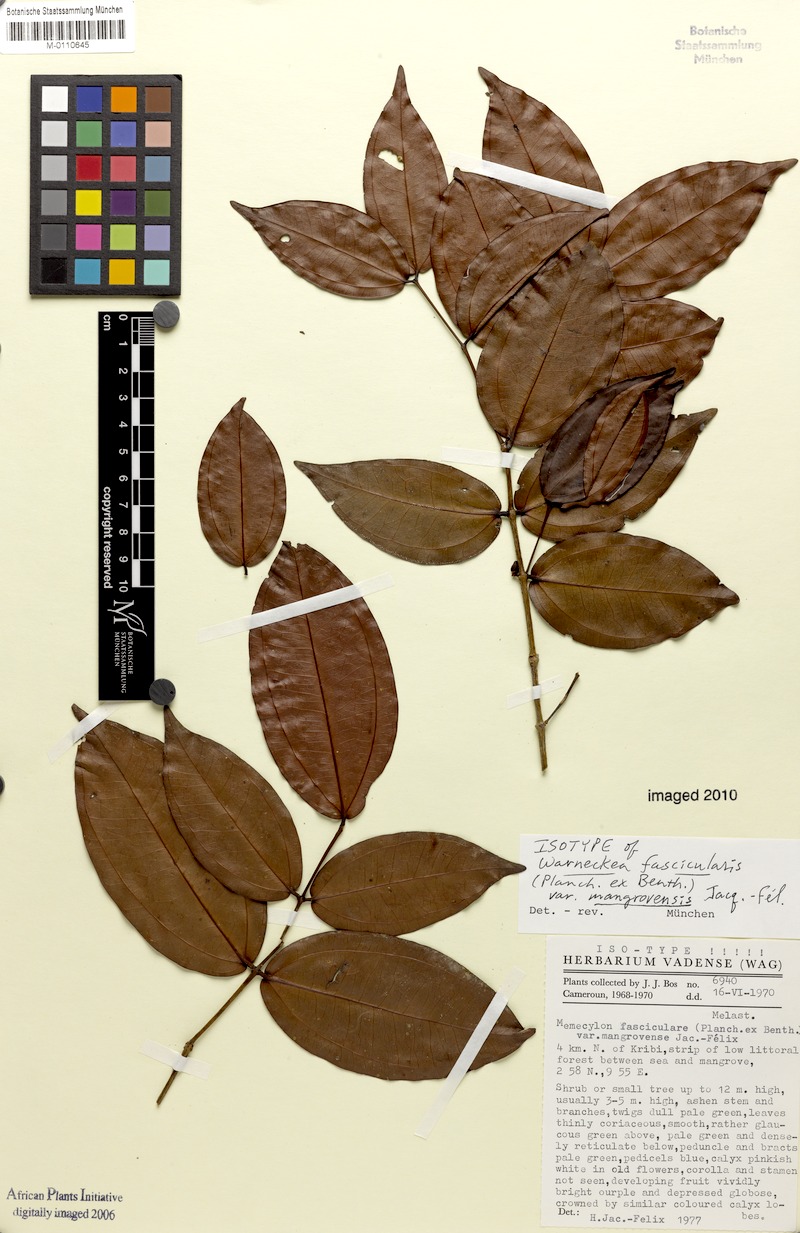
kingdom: Plantae
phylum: Tracheophyta
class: Magnoliopsida
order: Myrtales
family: Melastomataceae
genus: Warneckea
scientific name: Warneckea fascicularis
